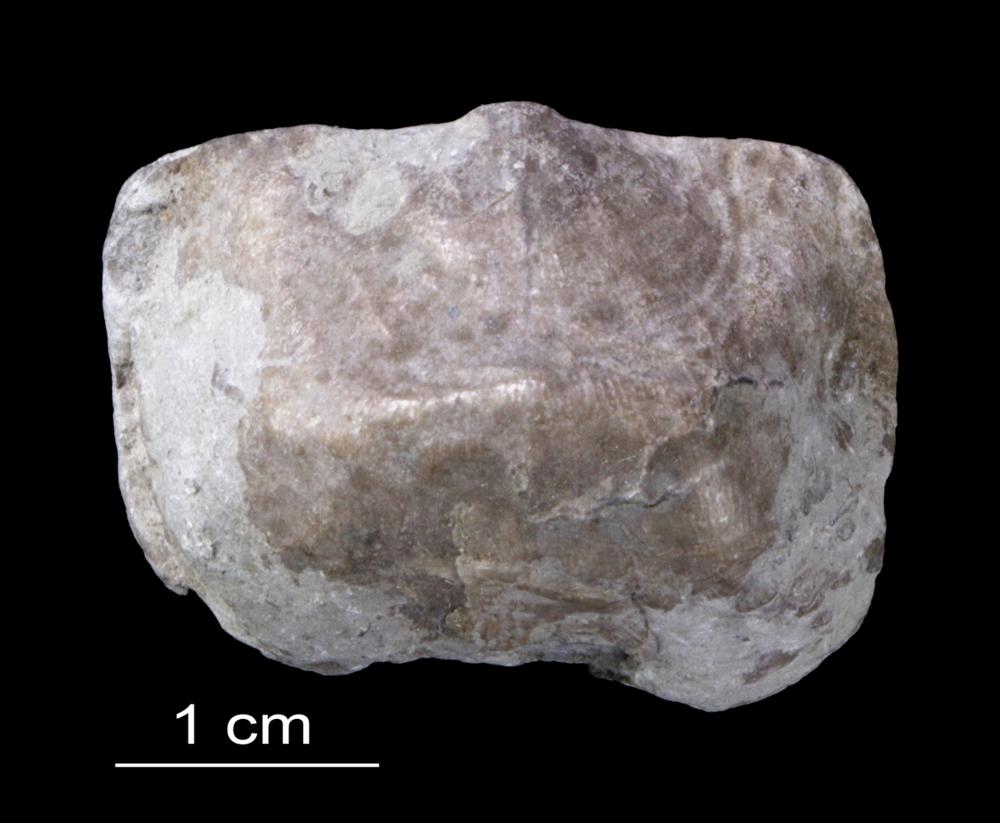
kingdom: Animalia
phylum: Brachiopoda
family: Strophomenidae
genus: Leptaena
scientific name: Leptaena Strophomena rhomboidalis
